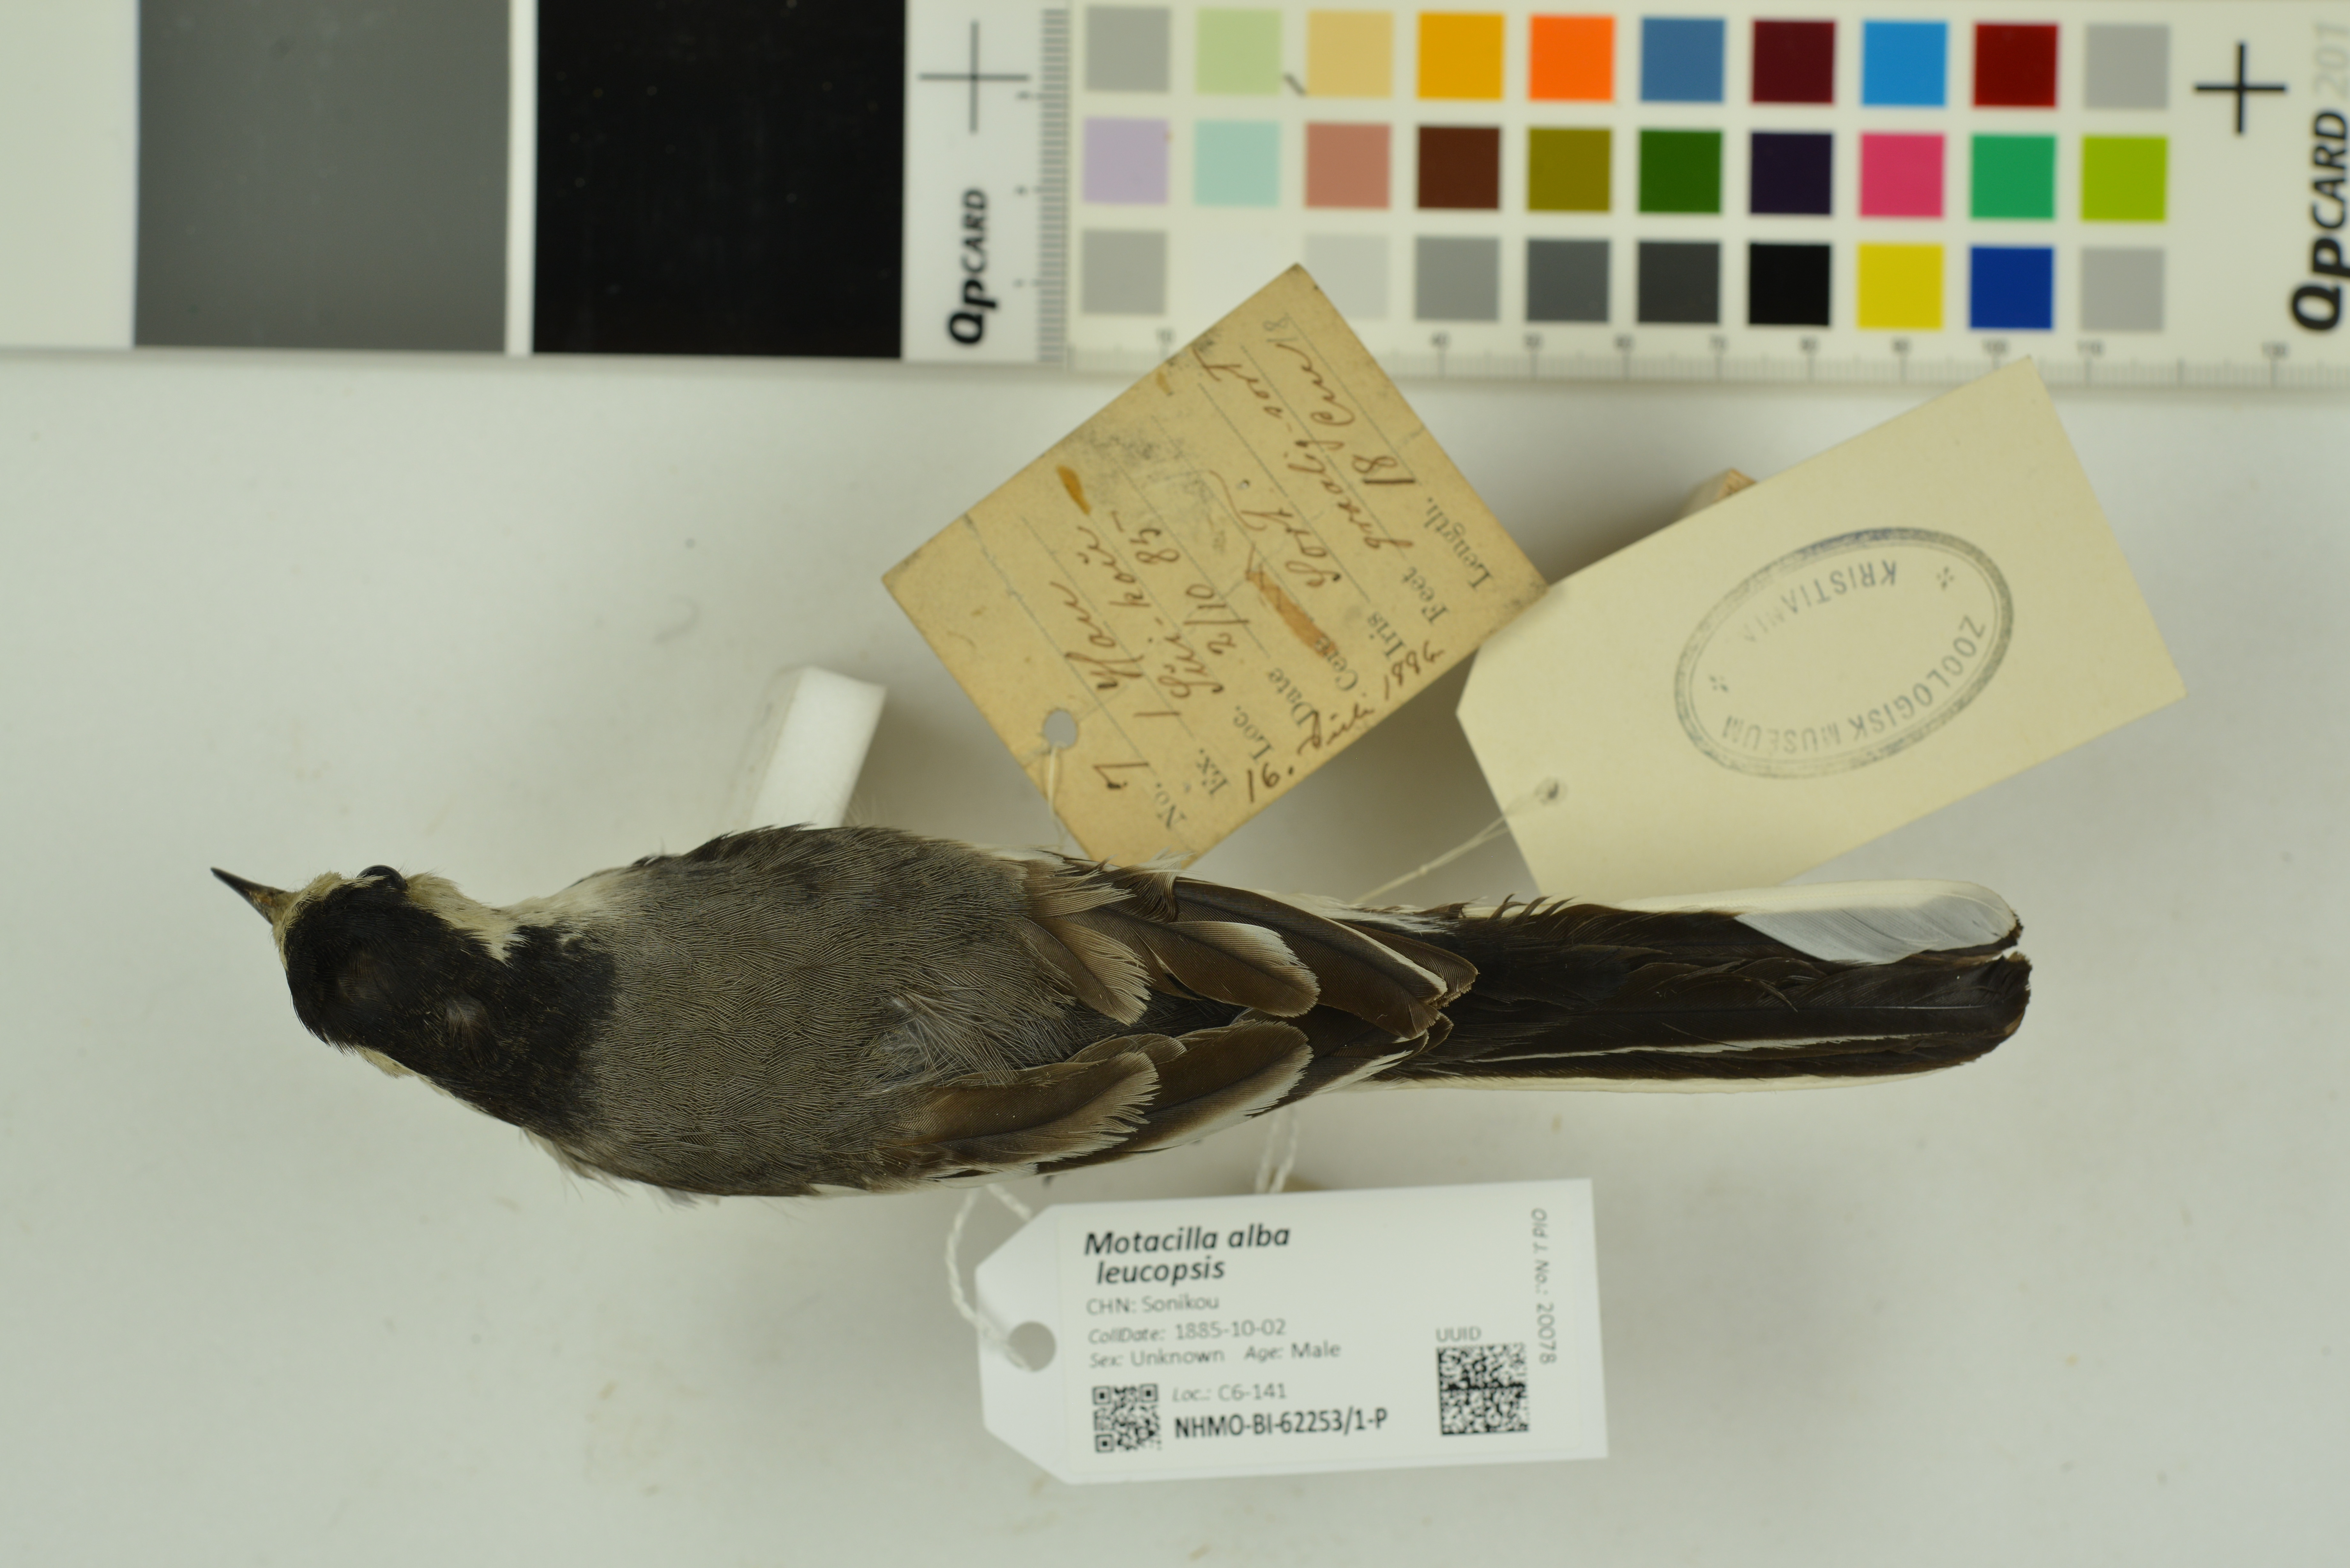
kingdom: Animalia
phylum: Chordata
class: Aves
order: Passeriformes
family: Motacillidae
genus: Motacilla
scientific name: Motacilla alba
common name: White wagtail
